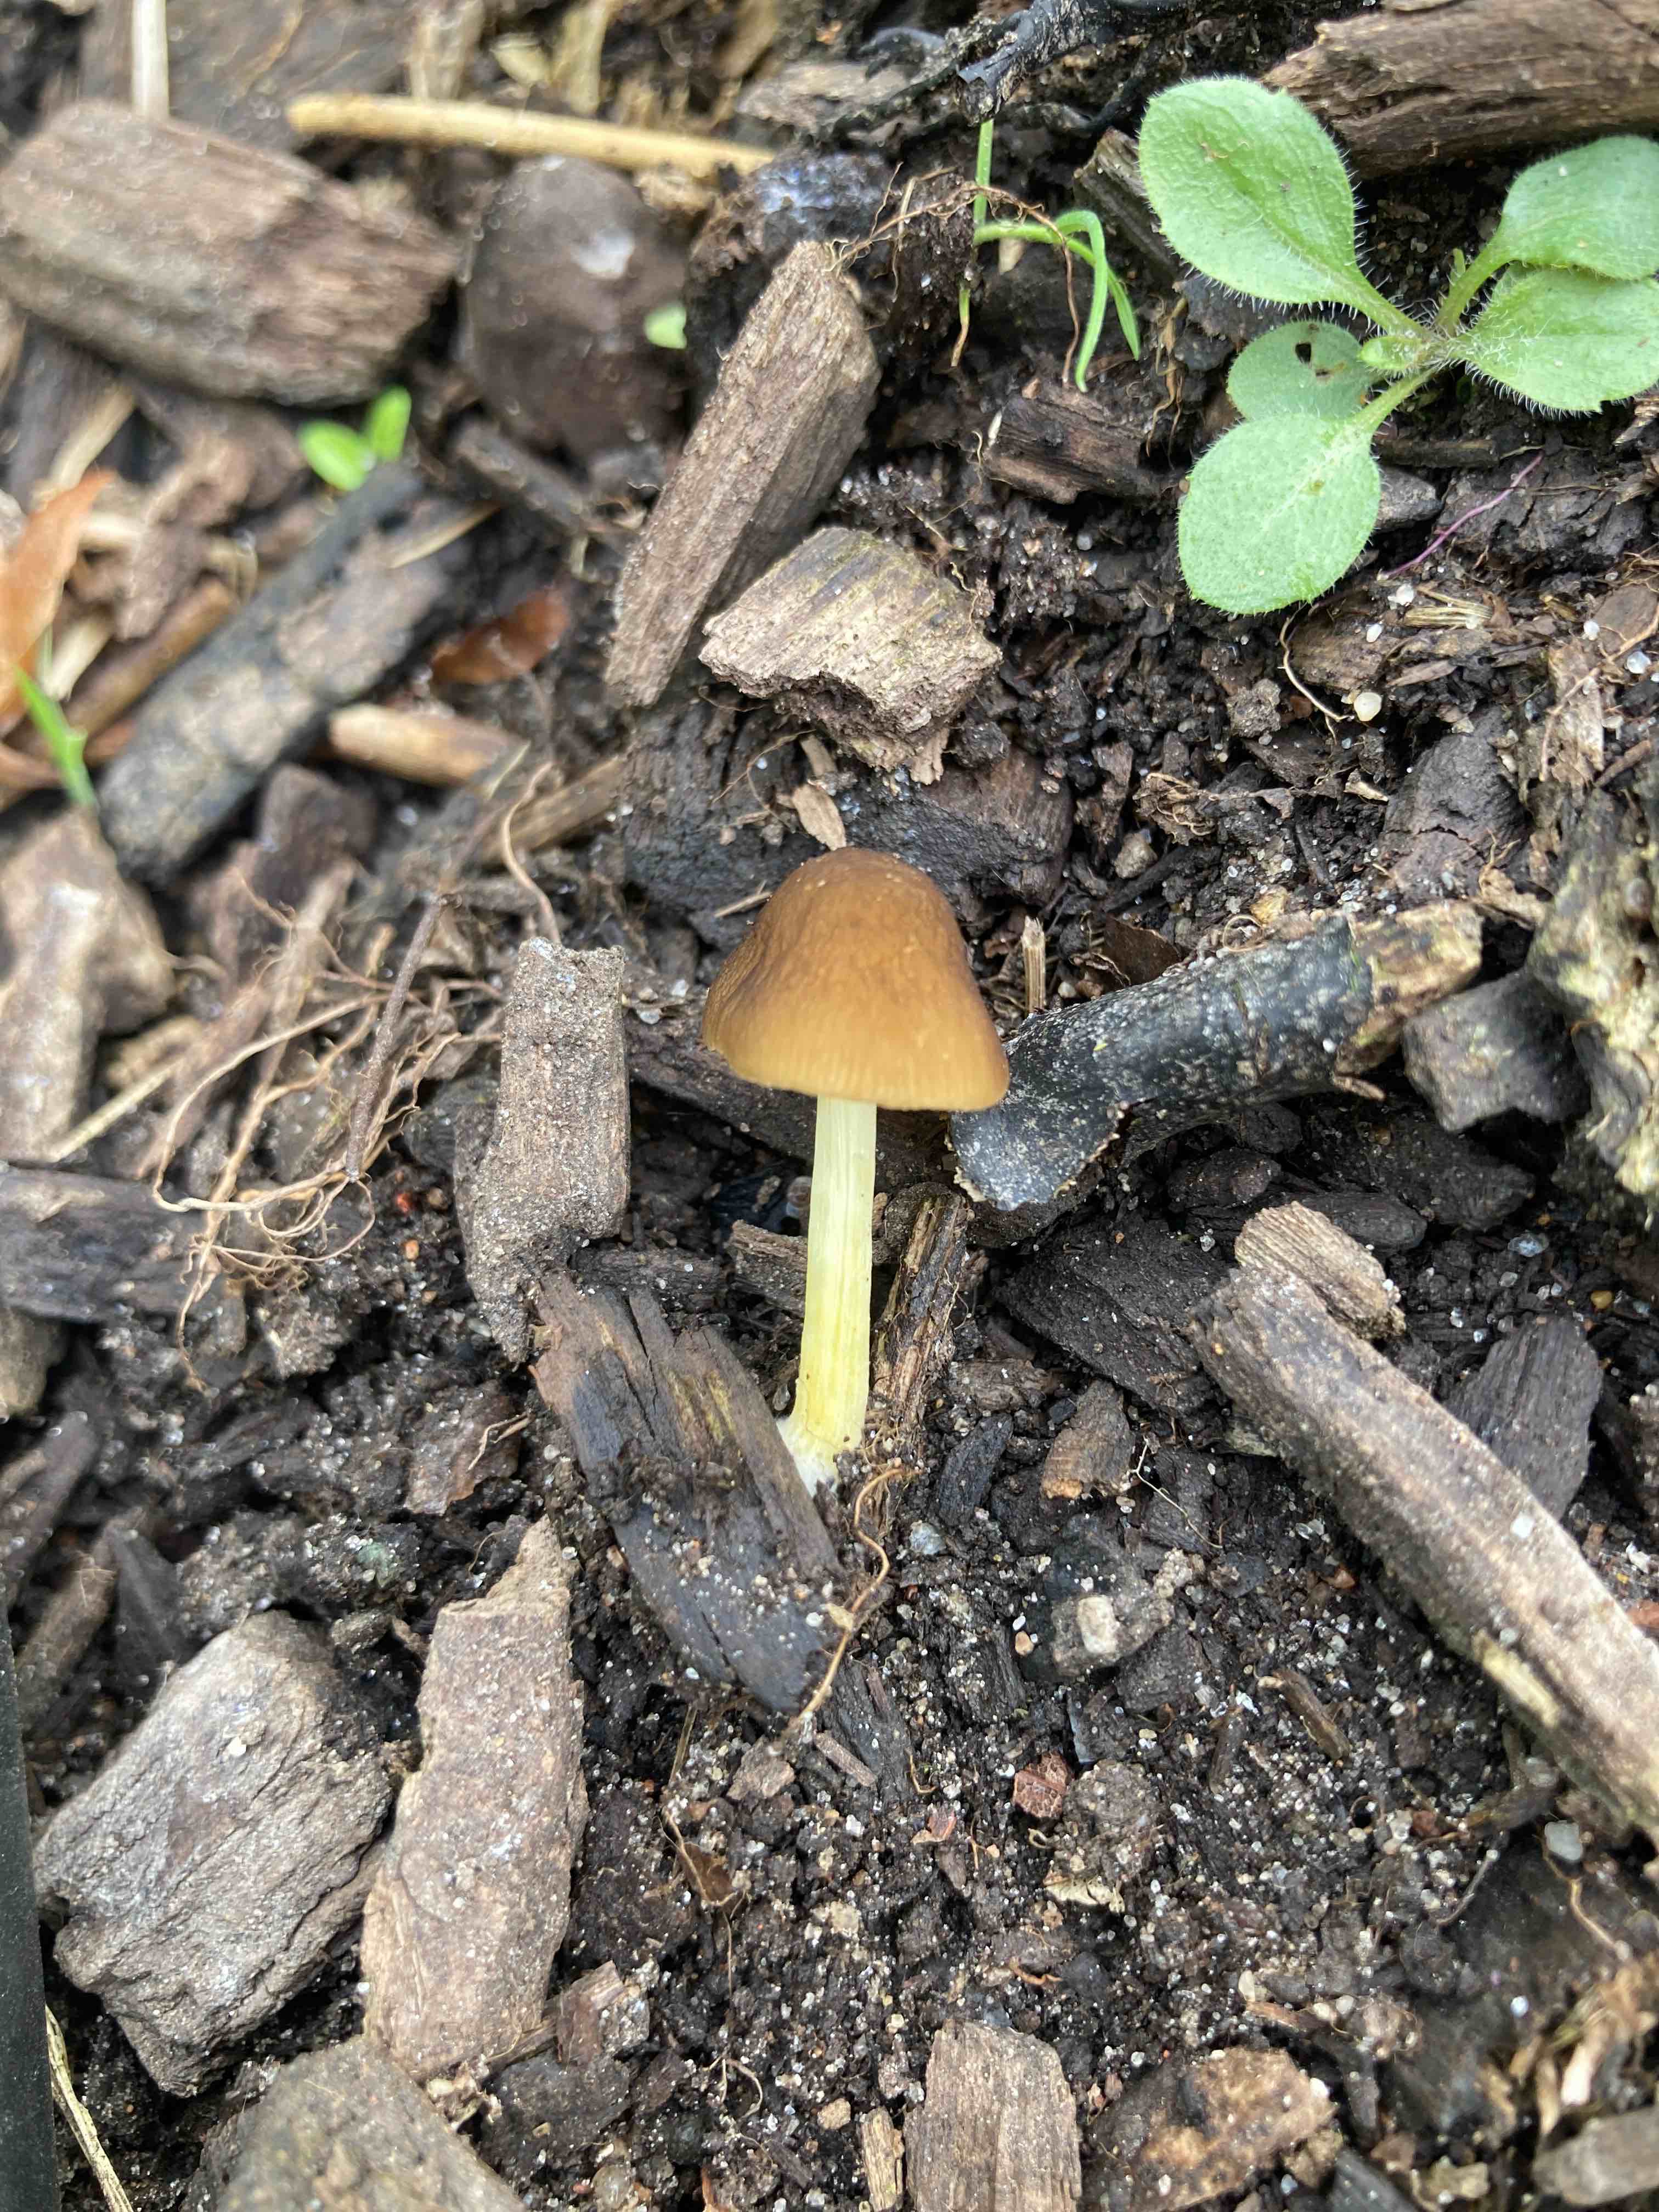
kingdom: Fungi
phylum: Basidiomycota
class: Agaricomycetes
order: Agaricales
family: Pluteaceae
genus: Pluteus
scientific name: Pluteus romellii
